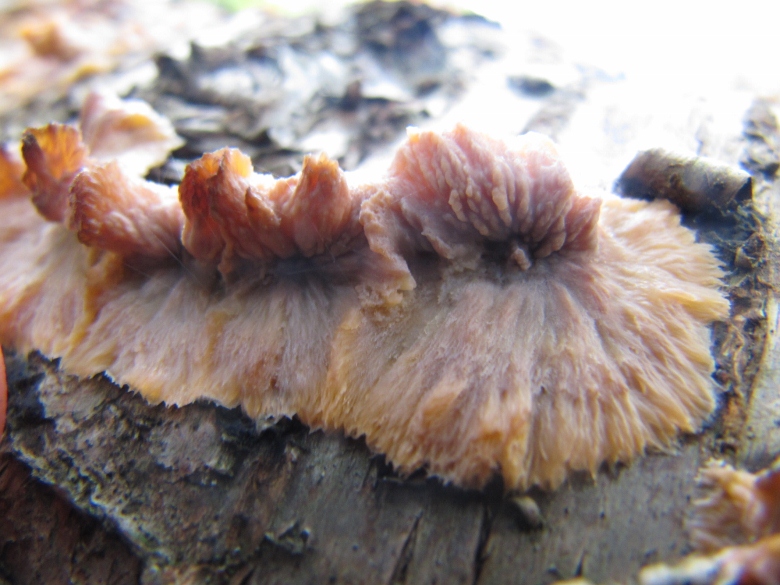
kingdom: Fungi
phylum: Basidiomycota
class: Agaricomycetes
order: Polyporales
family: Meruliaceae
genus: Phlebia
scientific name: Phlebia radiata
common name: stråle-åresvamp
